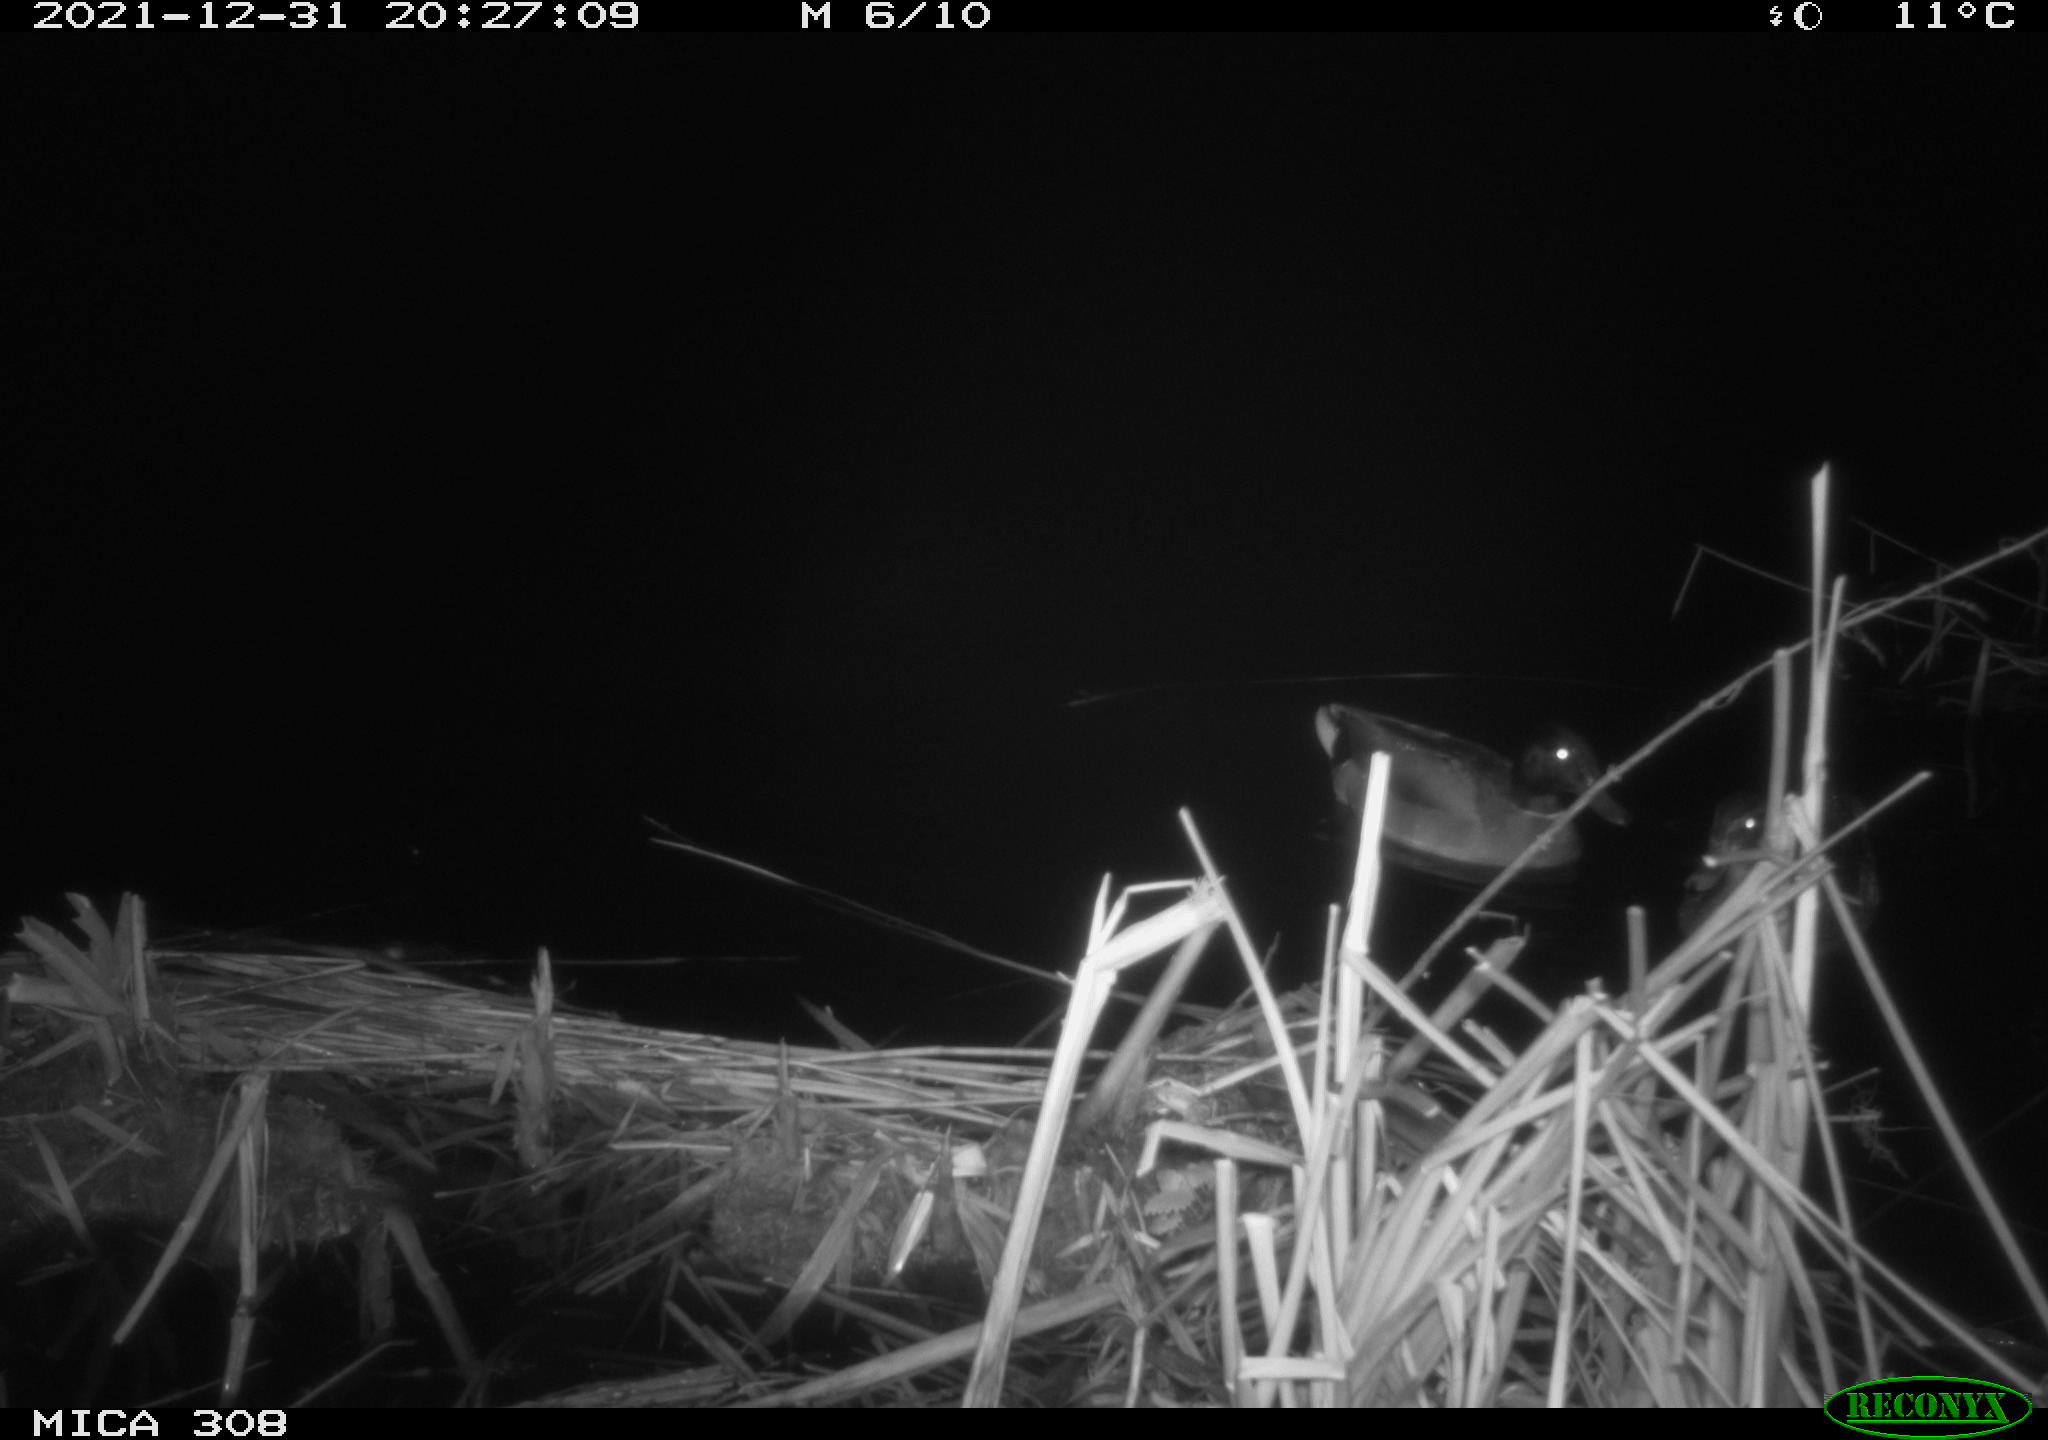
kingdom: Animalia
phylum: Chordata
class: Aves
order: Gruiformes
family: Rallidae
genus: Gallinula
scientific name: Gallinula chloropus
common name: Common moorhen
